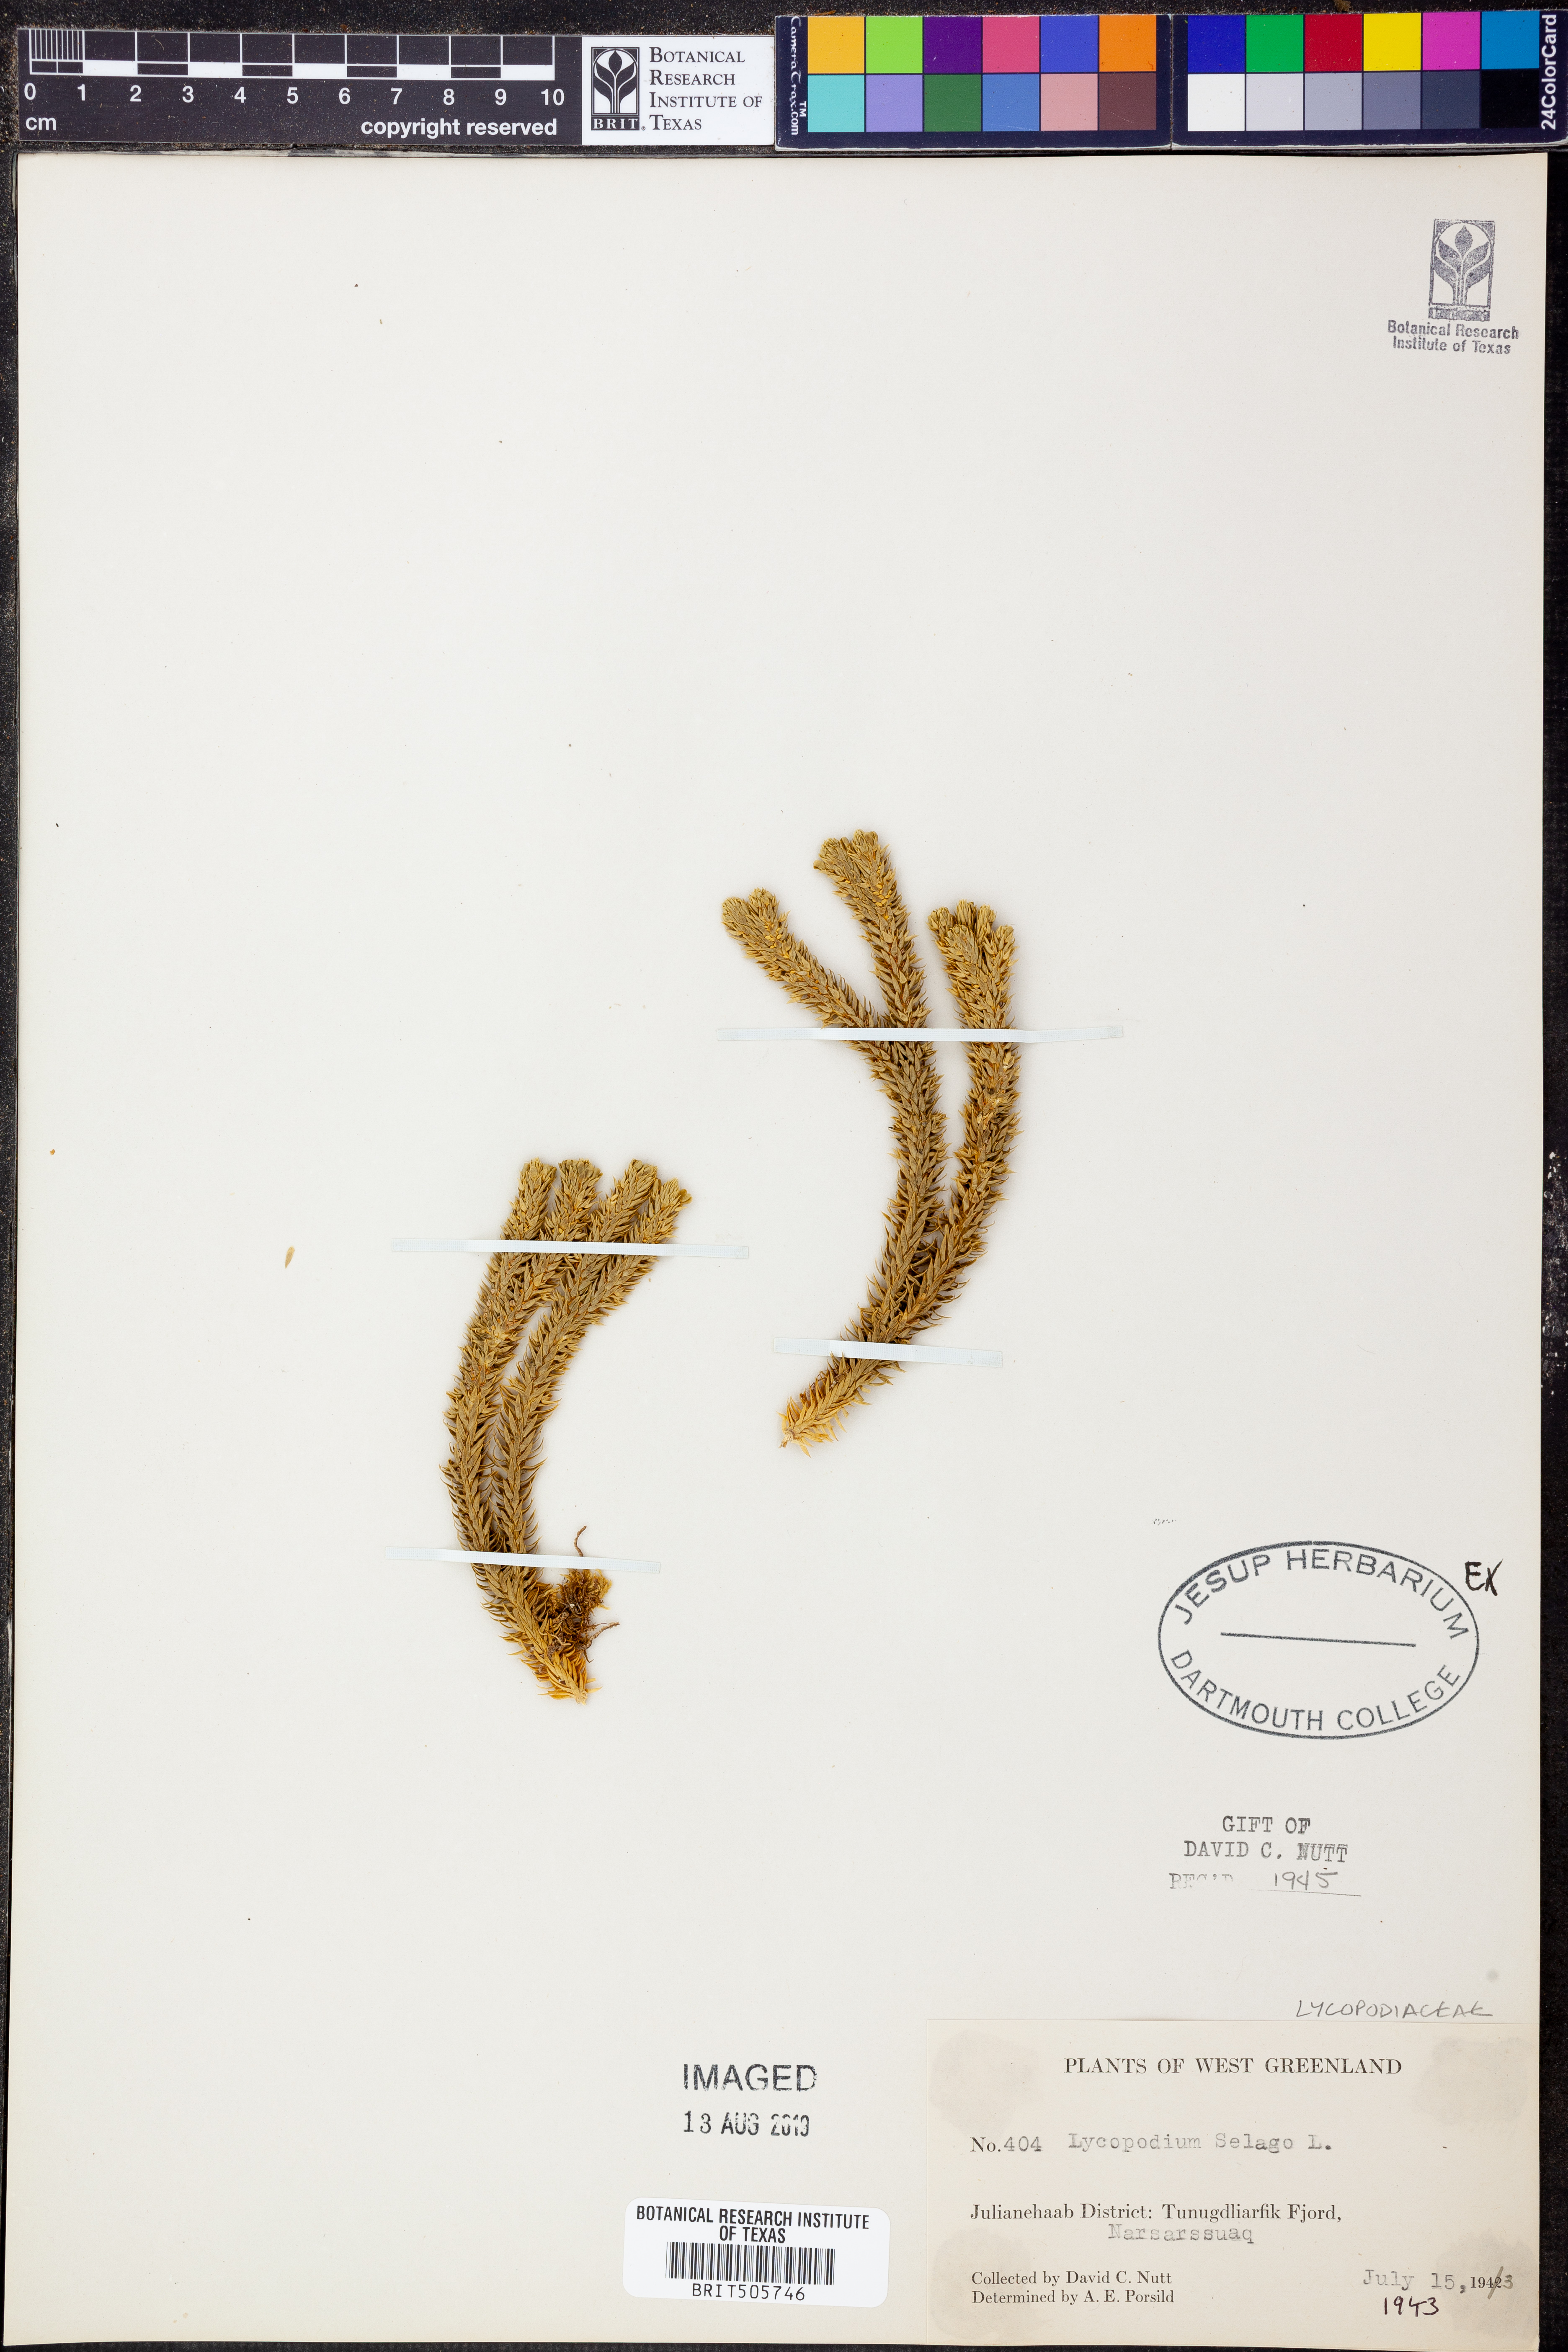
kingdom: Plantae
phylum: Tracheophyta
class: Lycopodiopsida
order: Lycopodiales
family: Lycopodiaceae
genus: Huperzia
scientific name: Huperzia selago
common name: Northern firmoss
